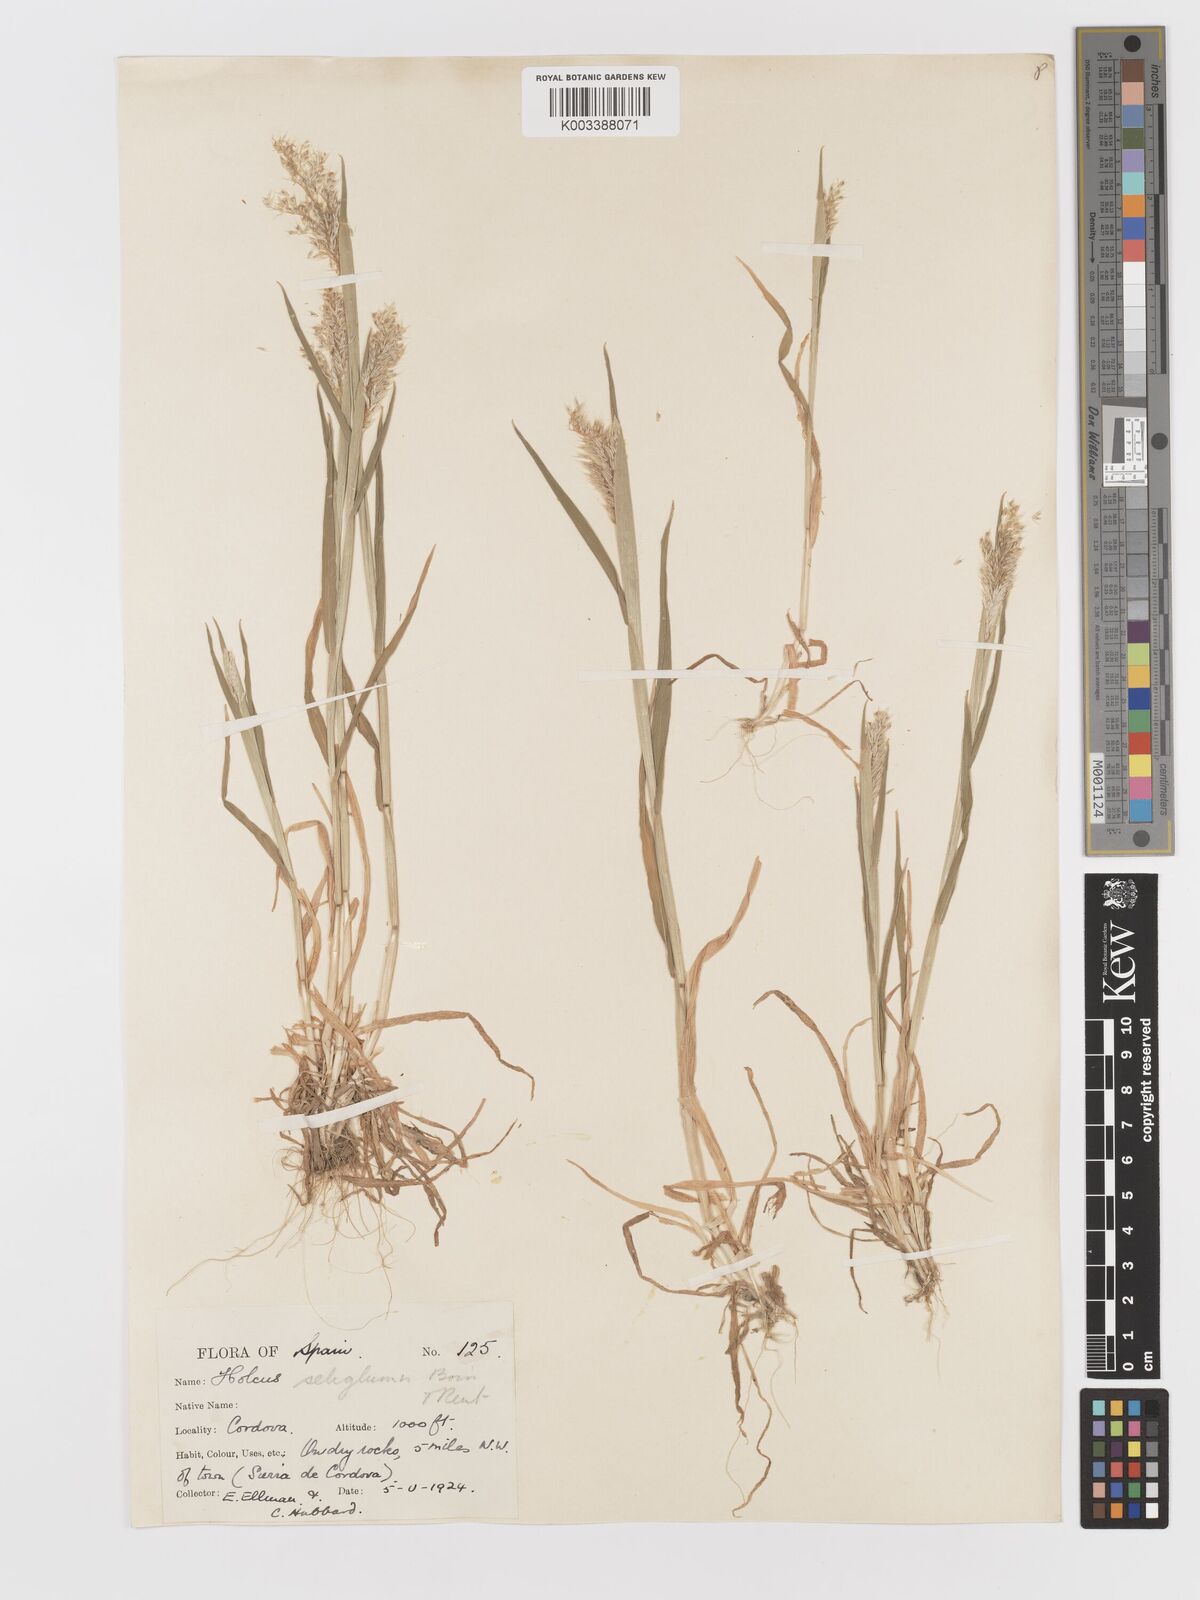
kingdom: Plantae
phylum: Tracheophyta
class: Liliopsida
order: Poales
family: Poaceae
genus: Holcus
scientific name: Holcus annuus
